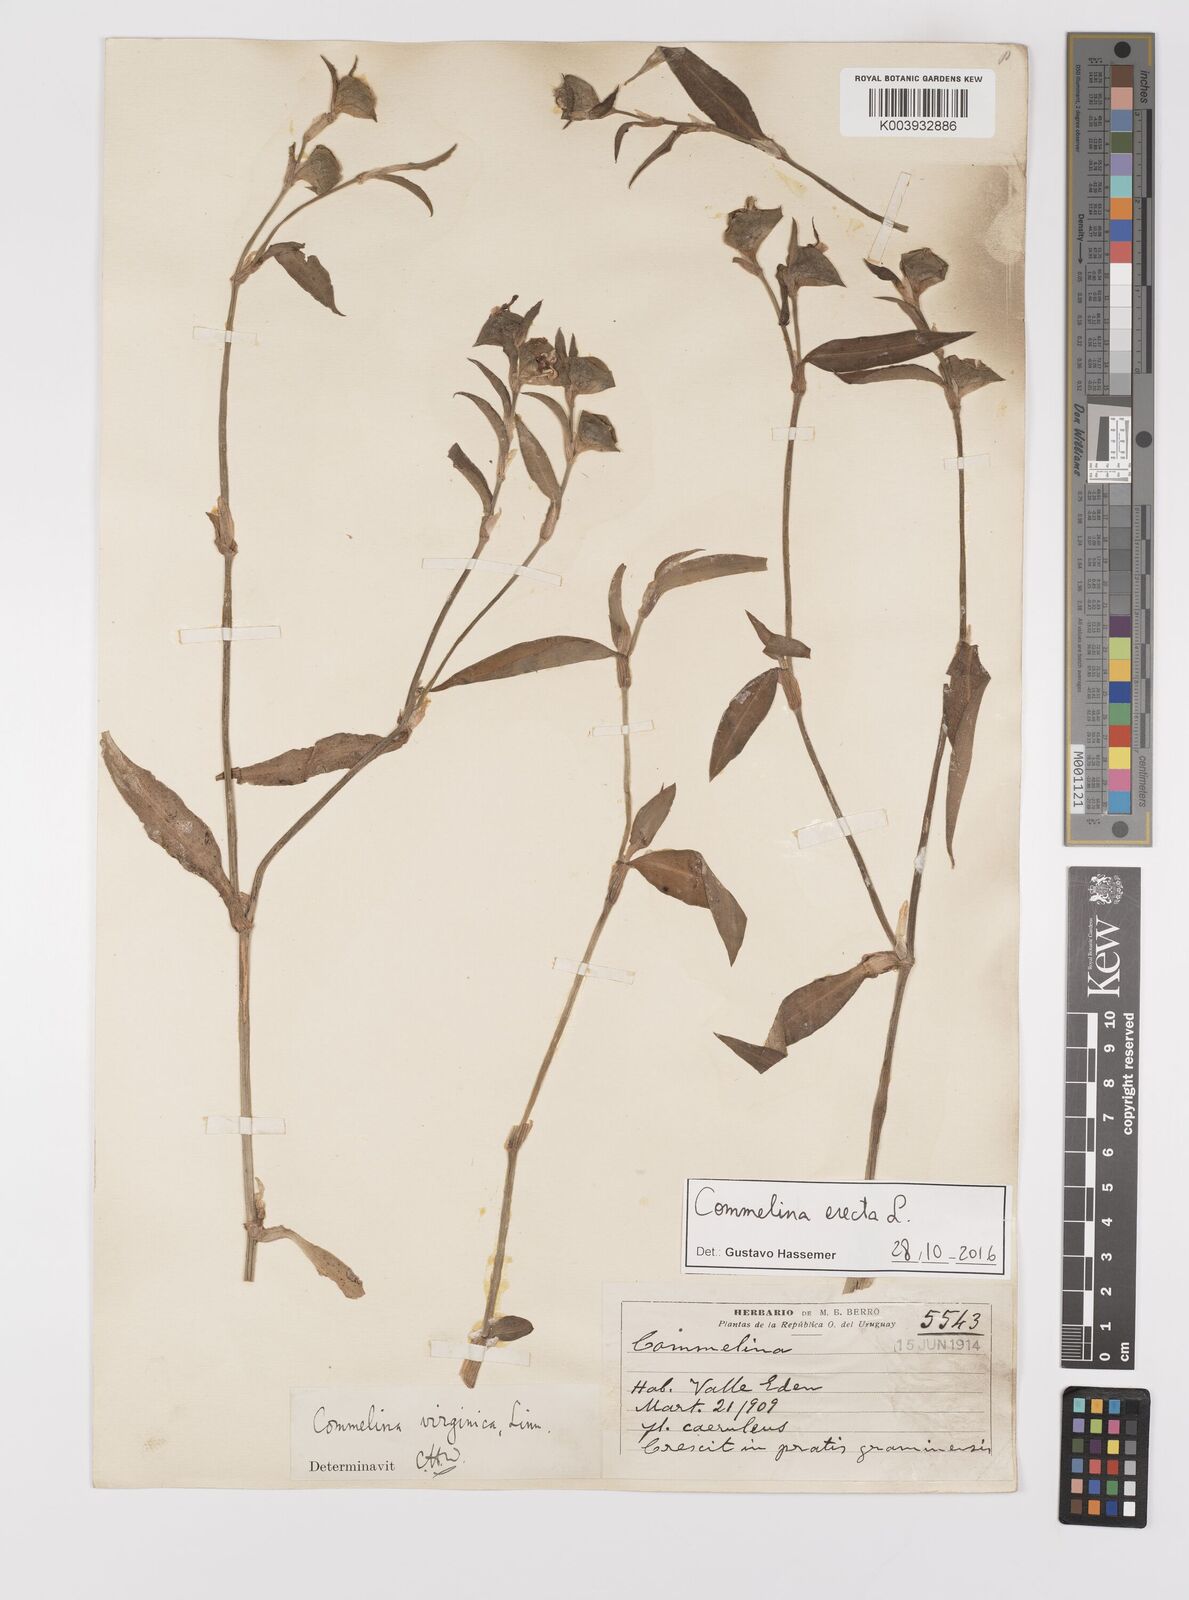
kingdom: Plantae
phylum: Tracheophyta
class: Liliopsida
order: Commelinales
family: Commelinaceae
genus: Commelina
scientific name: Commelina erecta
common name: Blousel blommetjie
